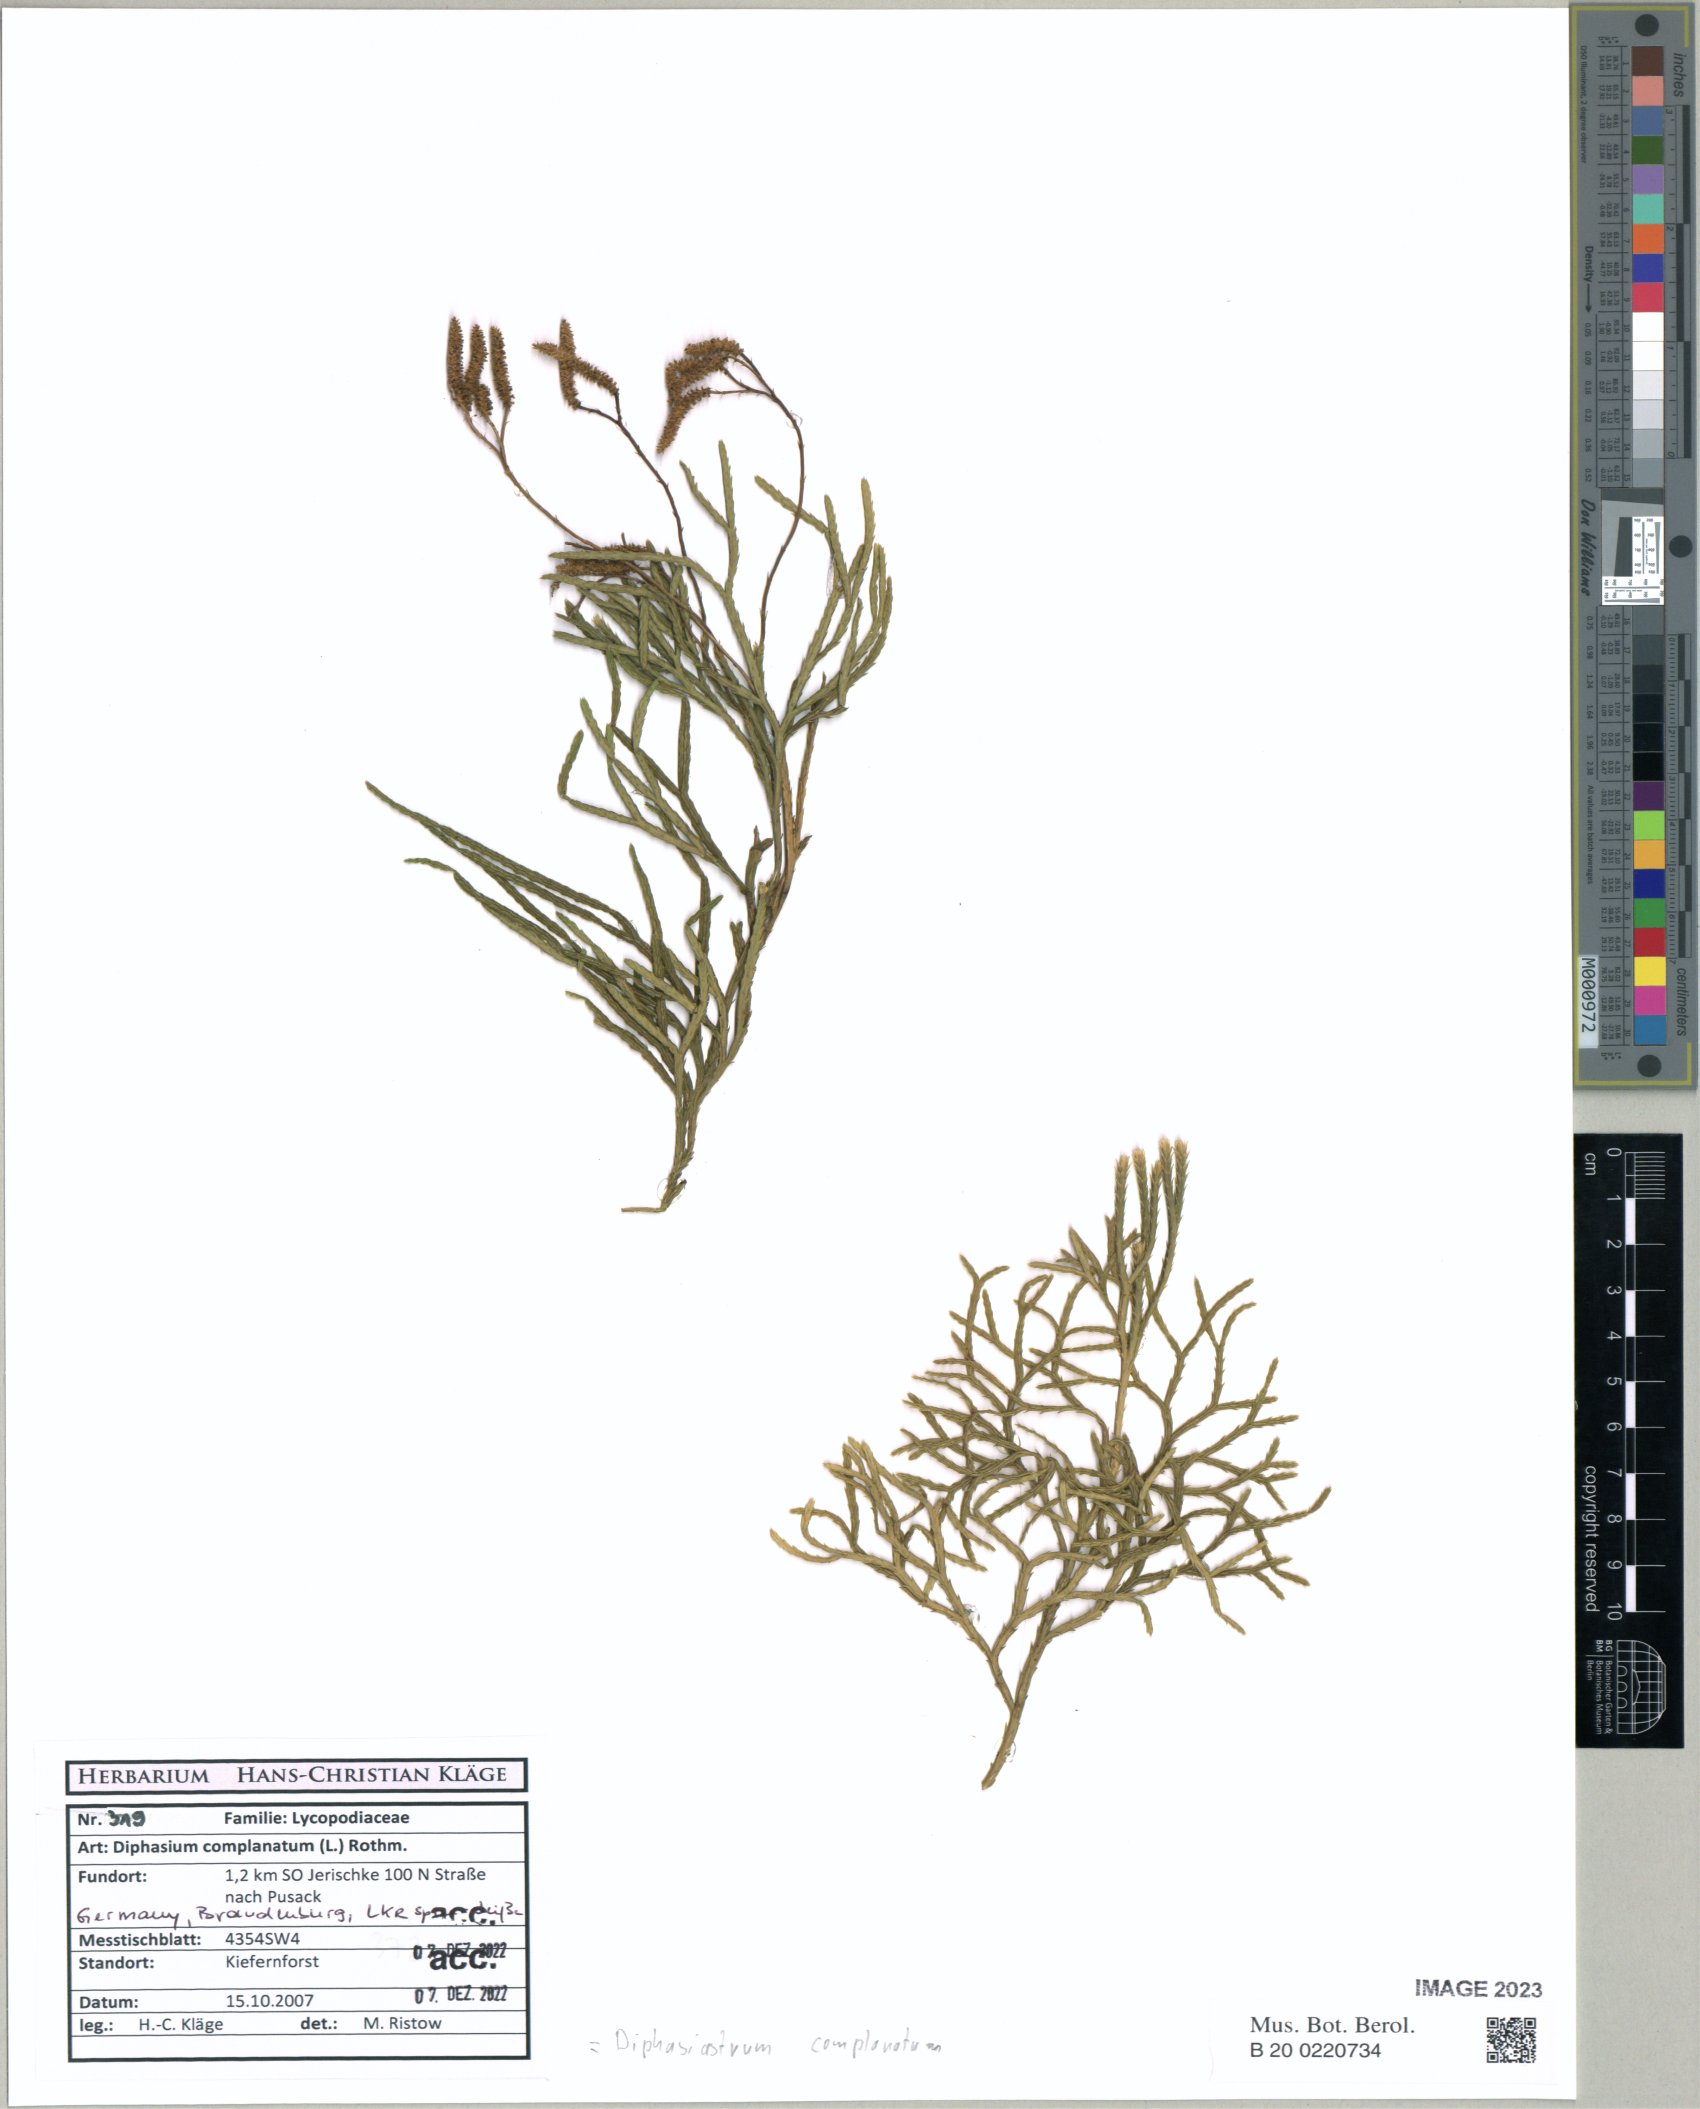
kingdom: Plantae
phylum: Tracheophyta
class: Lycopodiopsida
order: Lycopodiales
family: Lycopodiaceae
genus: Diphasiastrum
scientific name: Diphasiastrum complanatum
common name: Northern running-pine
